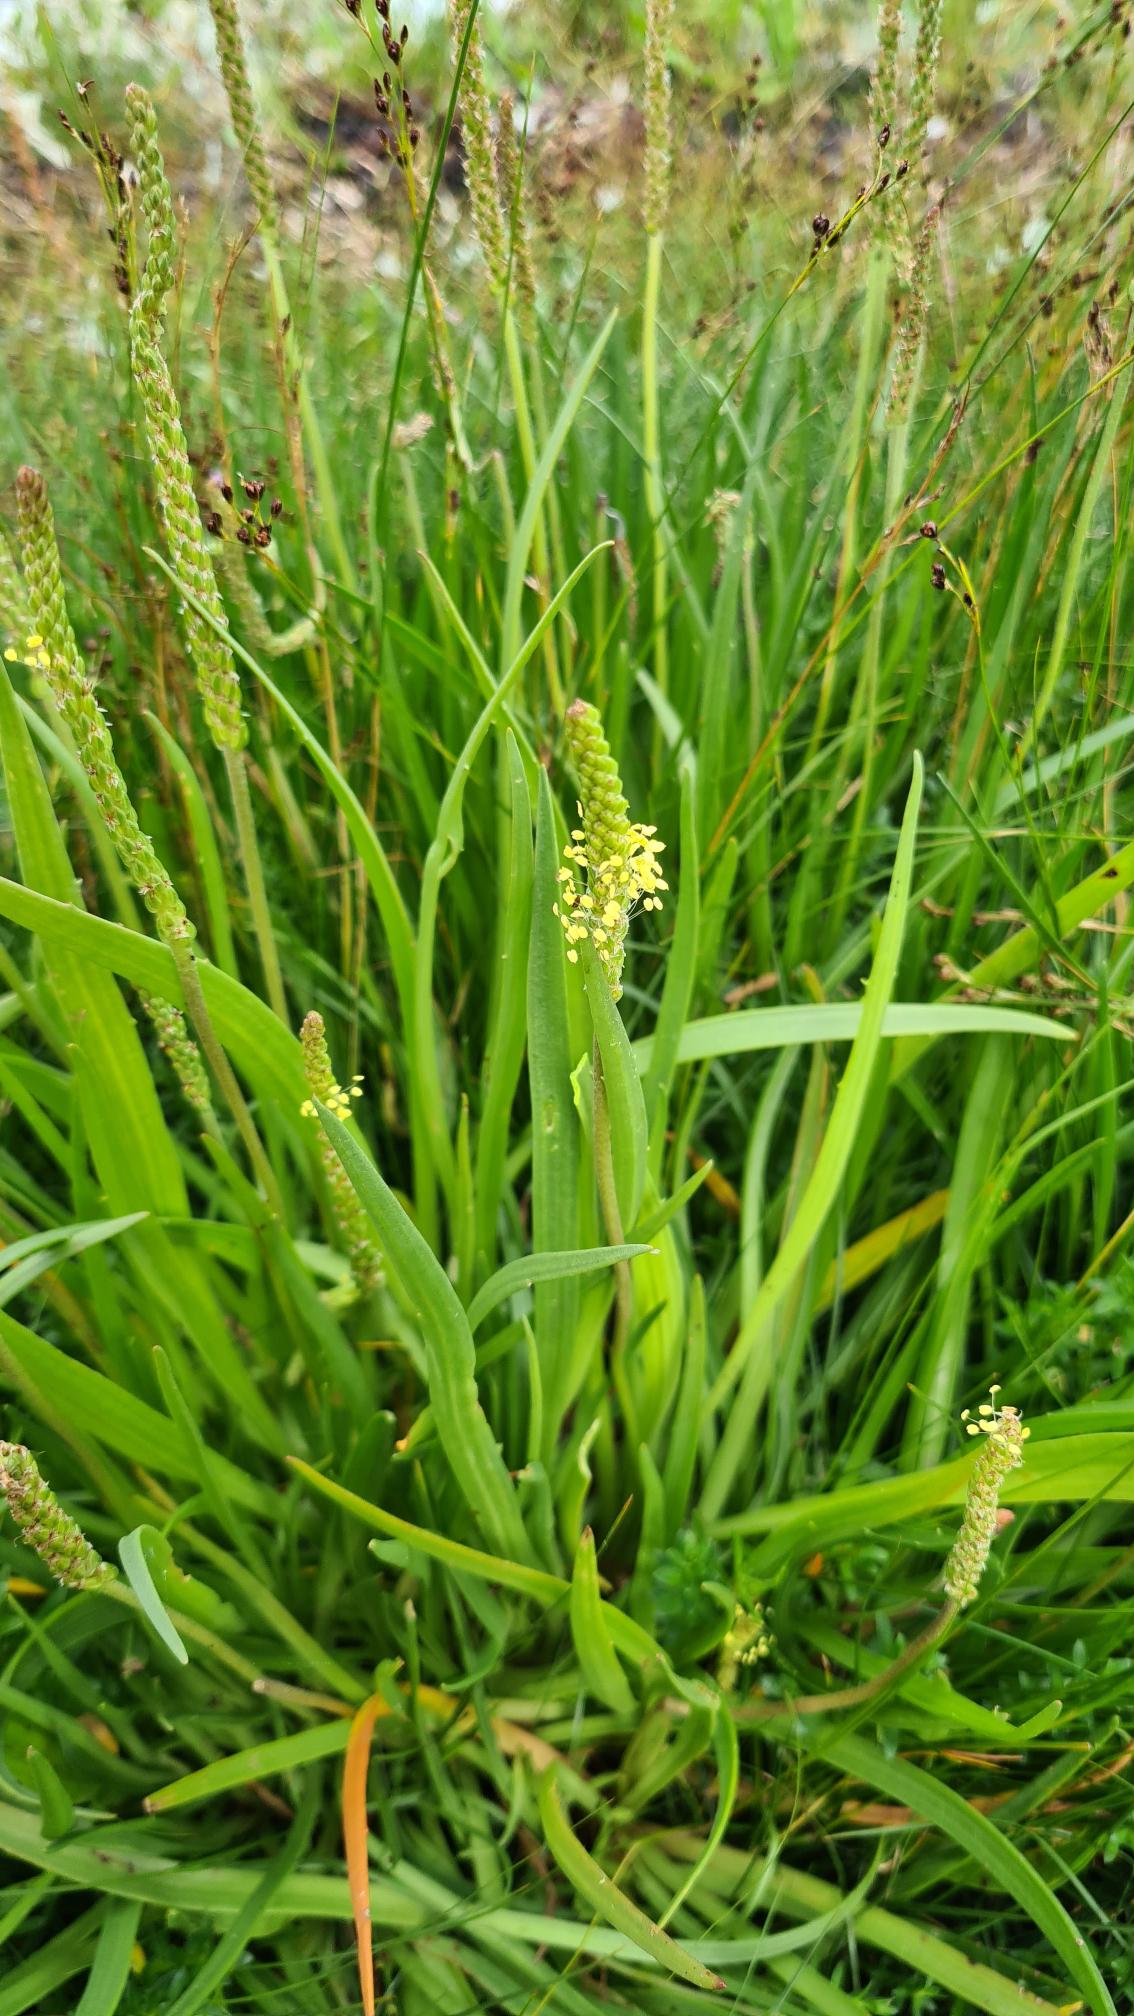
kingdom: Plantae
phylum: Tracheophyta
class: Magnoliopsida
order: Lamiales
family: Plantaginaceae
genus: Plantago
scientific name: Plantago maritima
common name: Strand-vejbred
